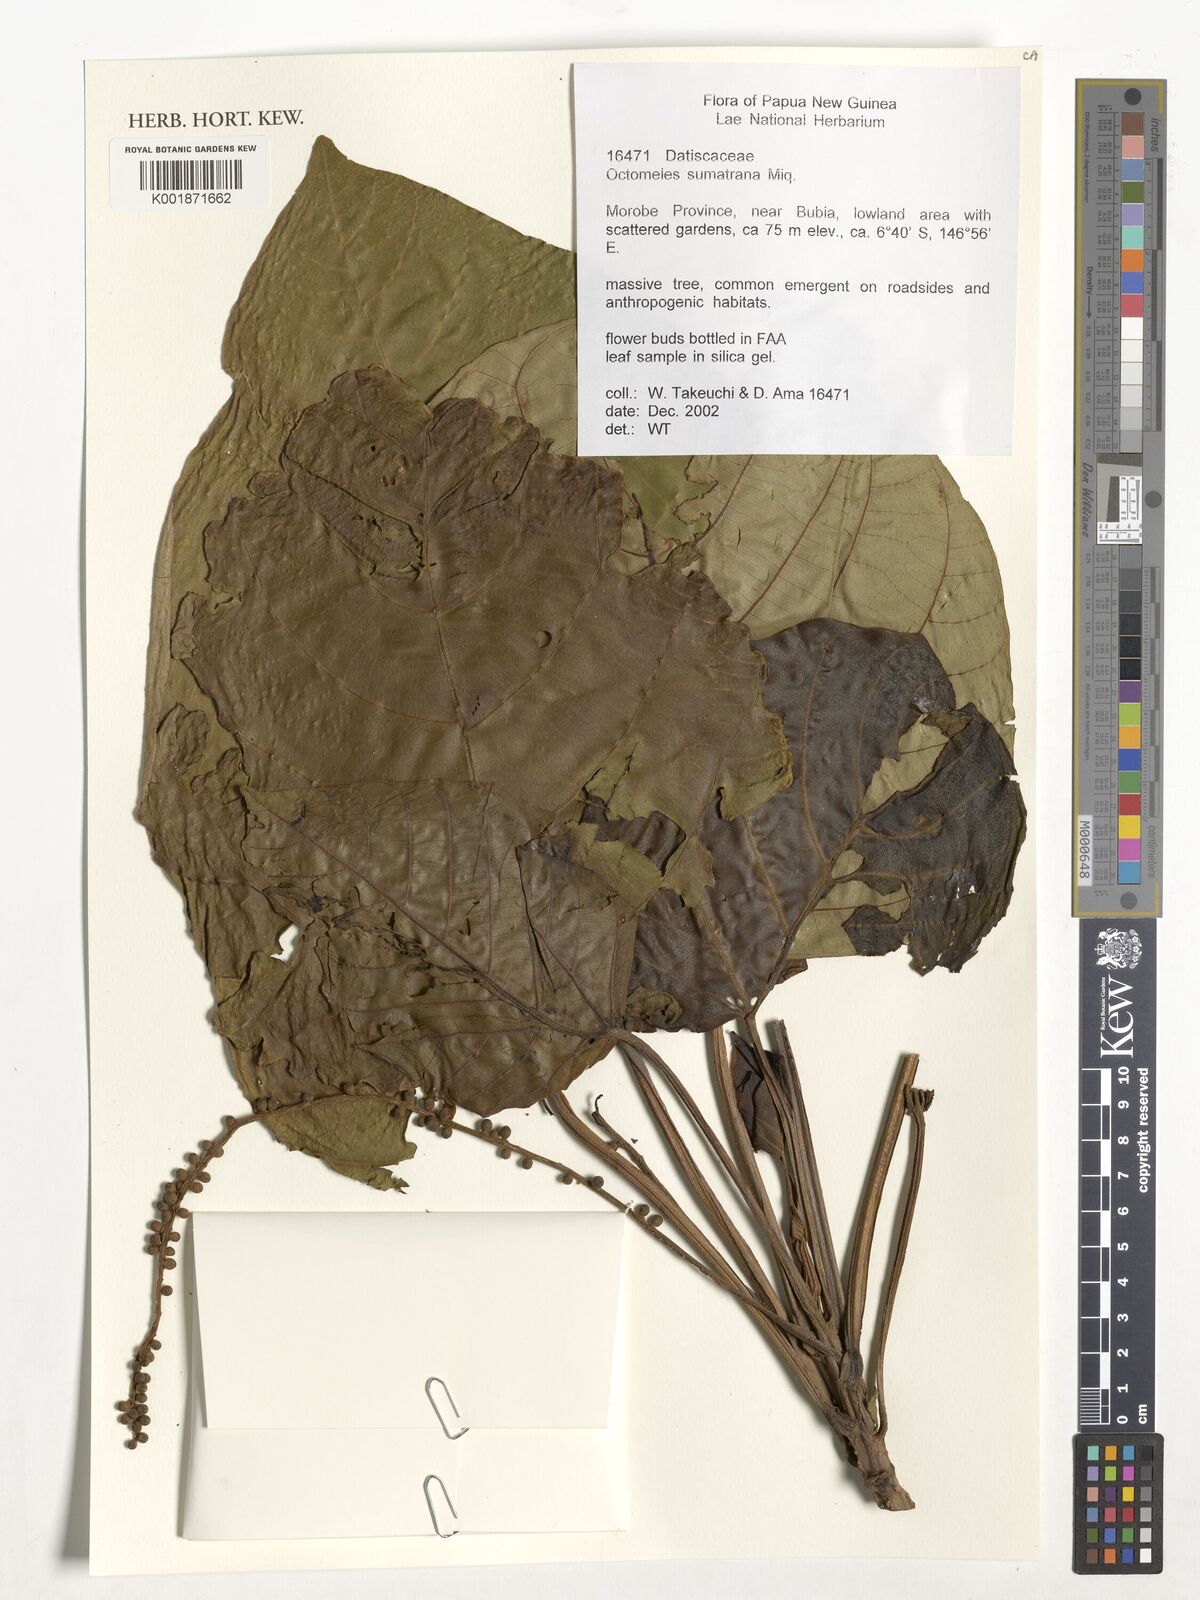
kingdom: Plantae
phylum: Tracheophyta
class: Magnoliopsida
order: Cucurbitales
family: Datiscaceae
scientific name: Datiscaceae
